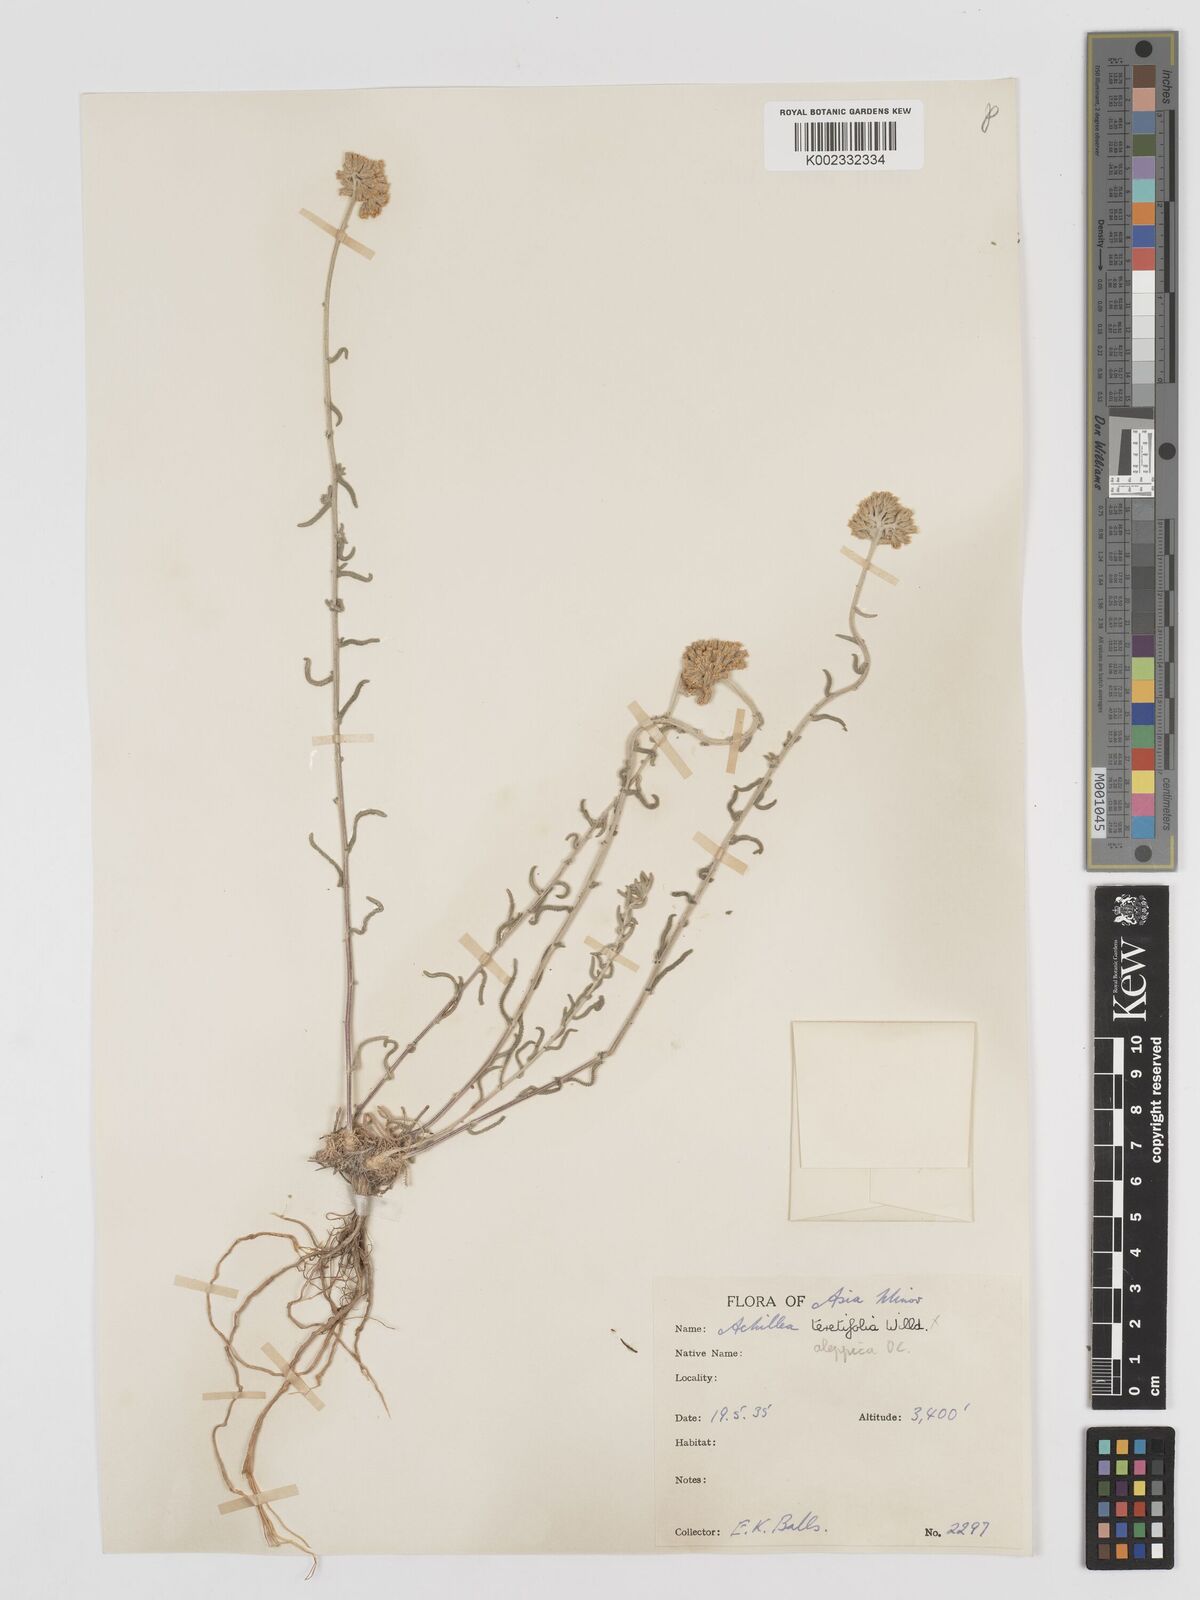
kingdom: Plantae
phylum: Tracheophyta
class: Magnoliopsida
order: Asterales
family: Asteraceae
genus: Achillea
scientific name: Achillea aleppica
